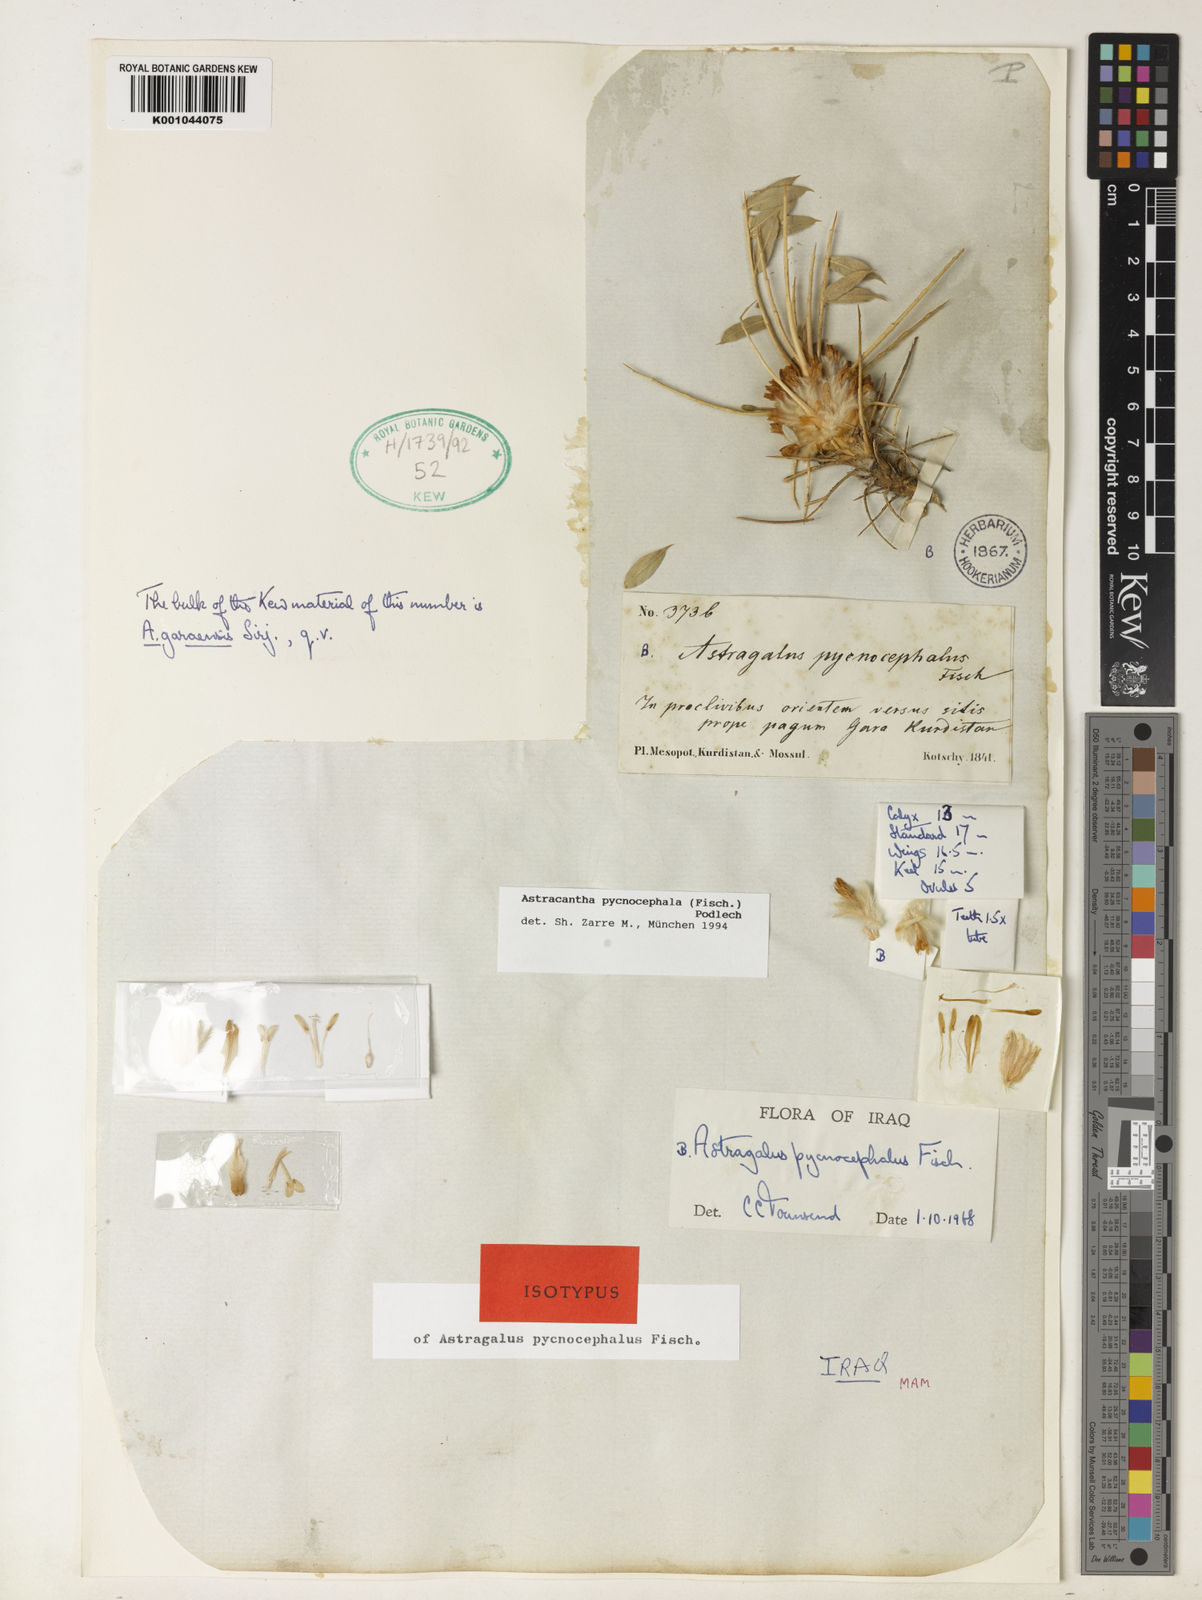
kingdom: Plantae
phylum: Tracheophyta
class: Magnoliopsida
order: Fabales
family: Fabaceae
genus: Astragalus
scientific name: Astragalus pycnocephalus
